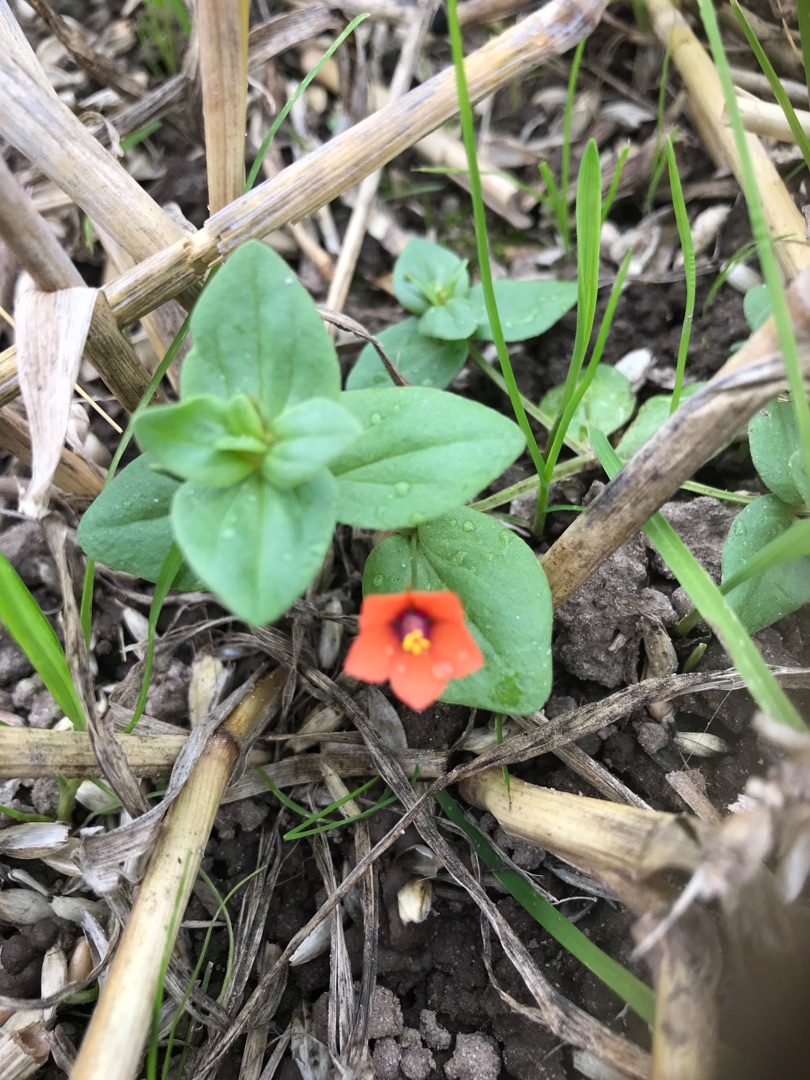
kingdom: Plantae
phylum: Tracheophyta
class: Magnoliopsida
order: Ericales
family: Primulaceae
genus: Lysimachia
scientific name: Lysimachia arvensis
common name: Rød arve
